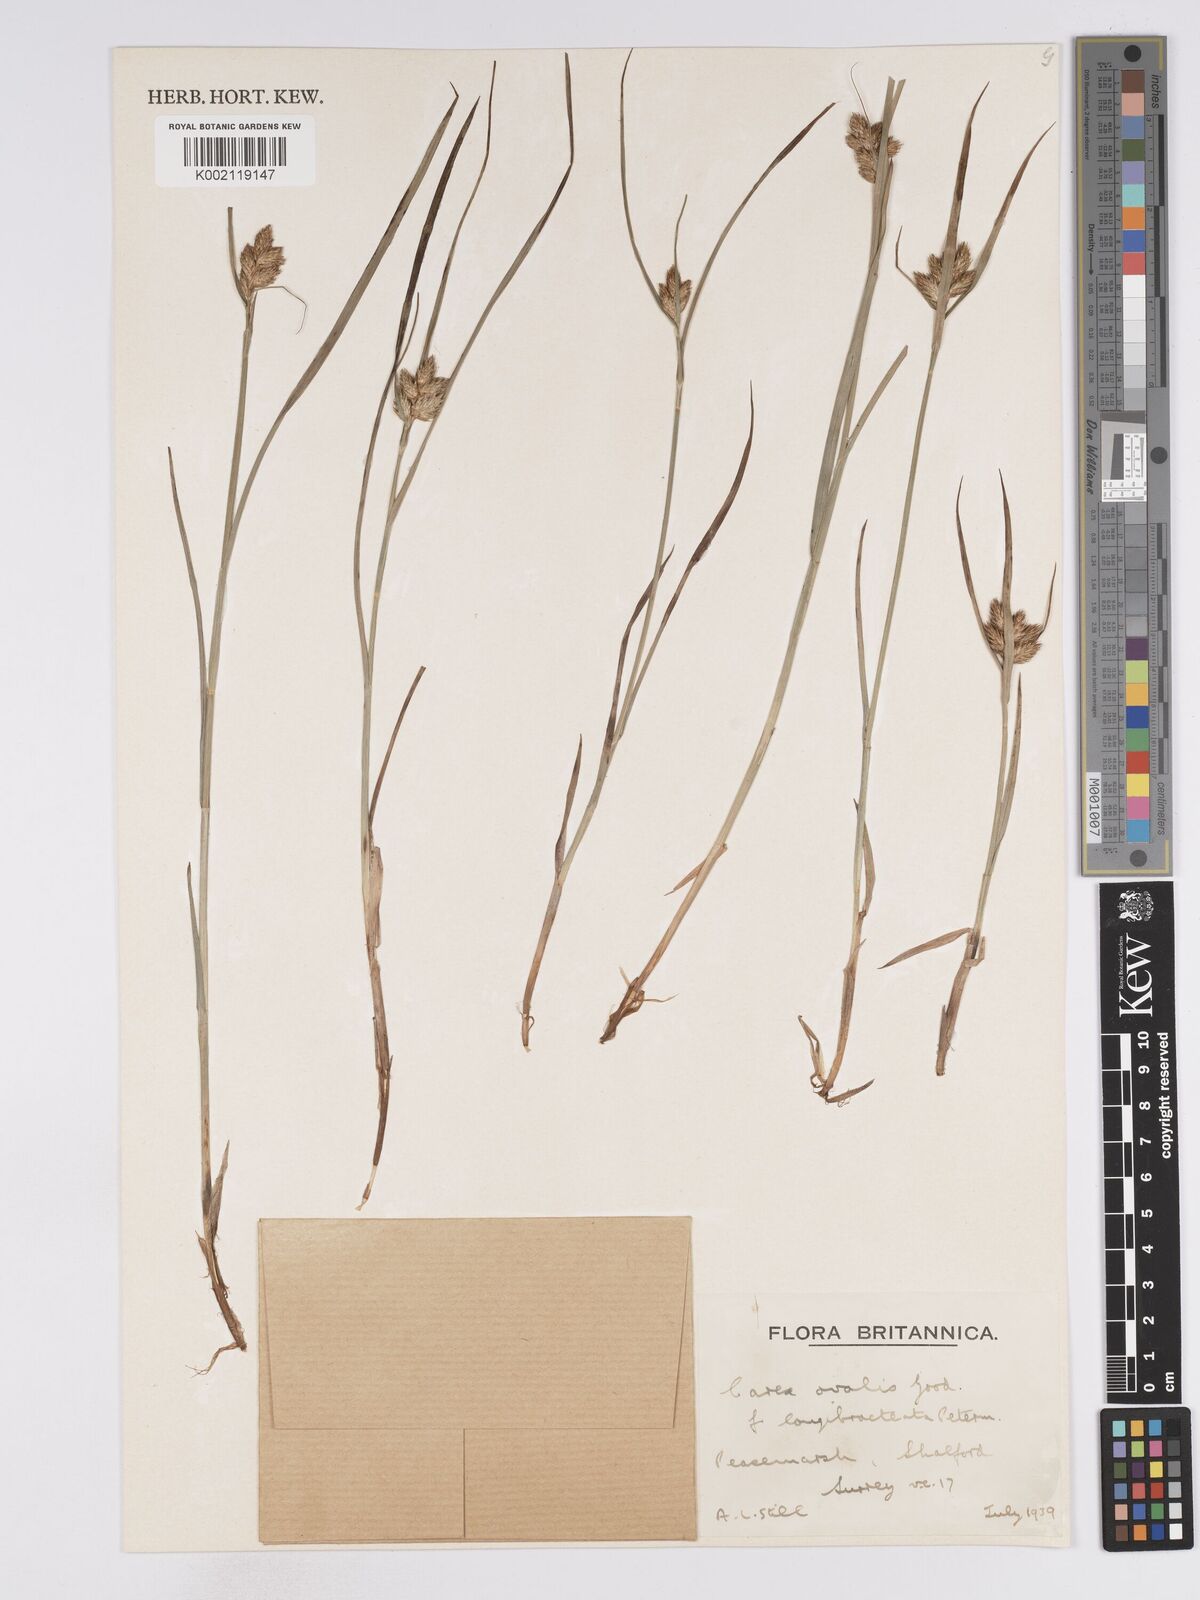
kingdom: Plantae
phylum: Tracheophyta
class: Liliopsida
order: Poales
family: Cyperaceae
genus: Carex
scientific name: Carex leporina
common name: Oval sedge
